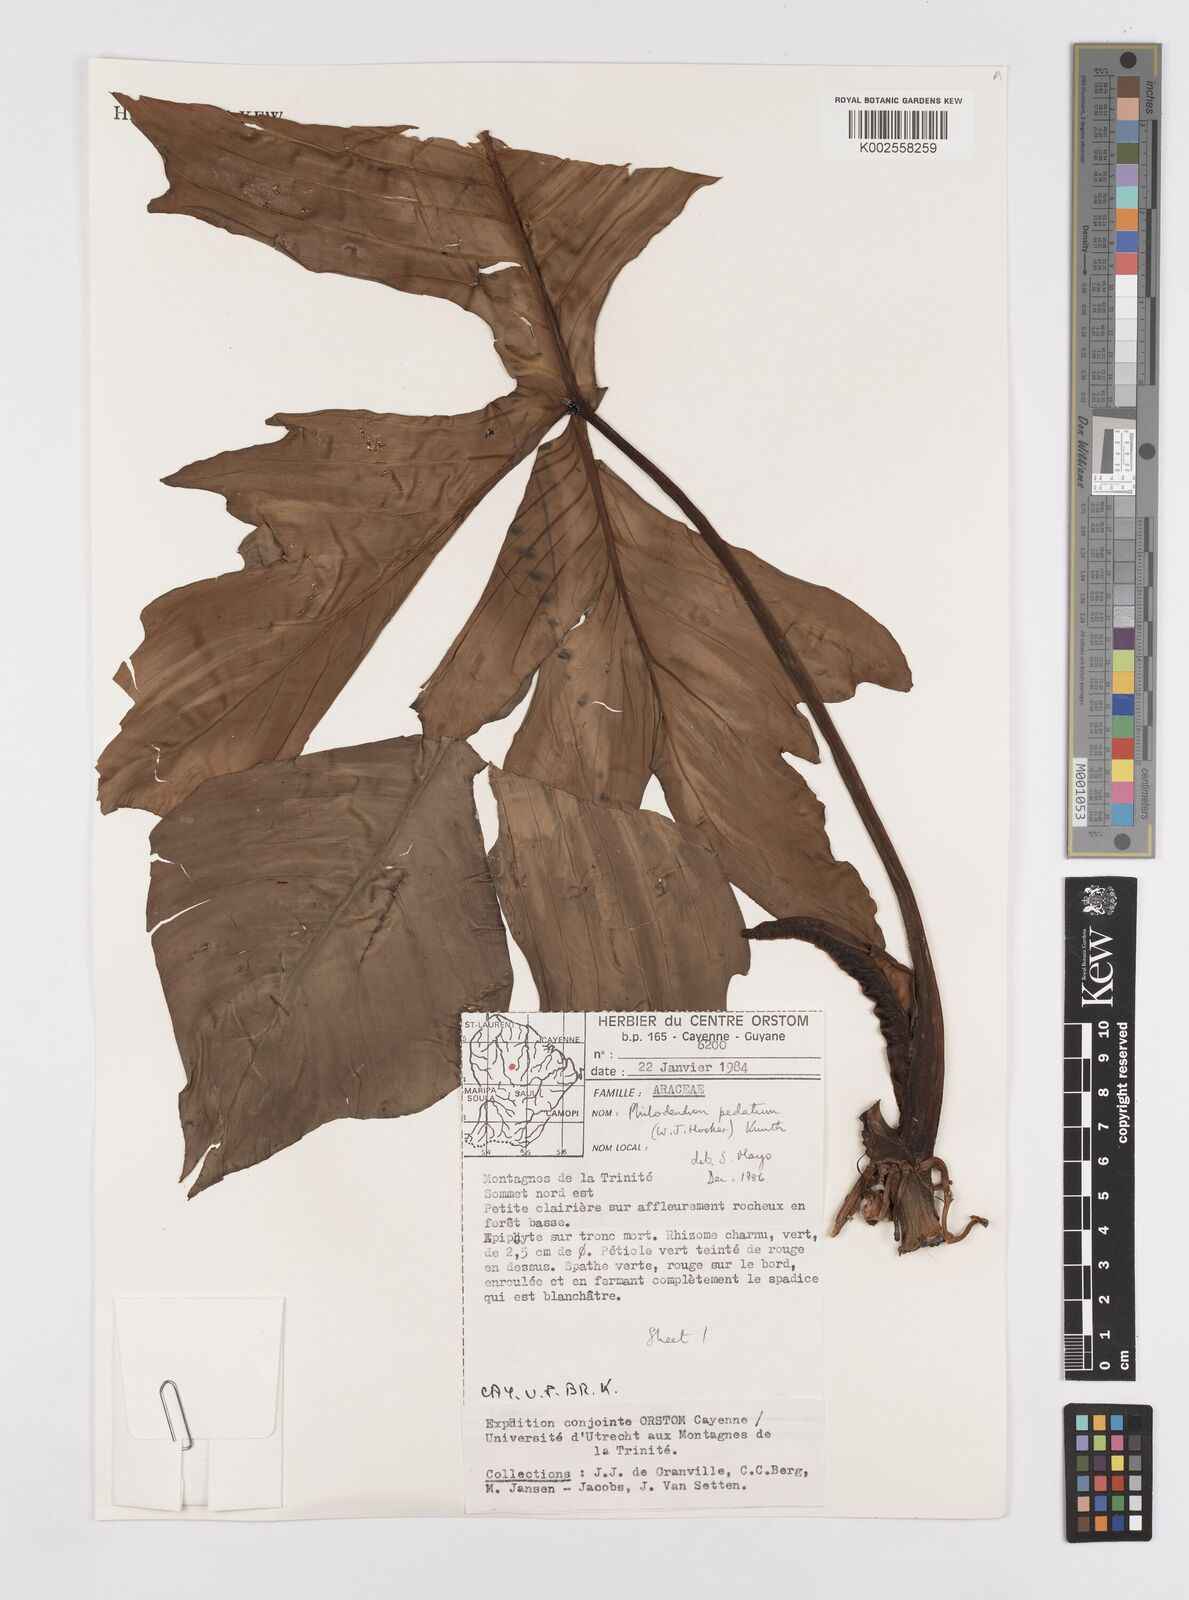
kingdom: Plantae
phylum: Tracheophyta
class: Liliopsida
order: Alismatales
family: Araceae
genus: Philodendron
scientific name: Philodendron pedatum
